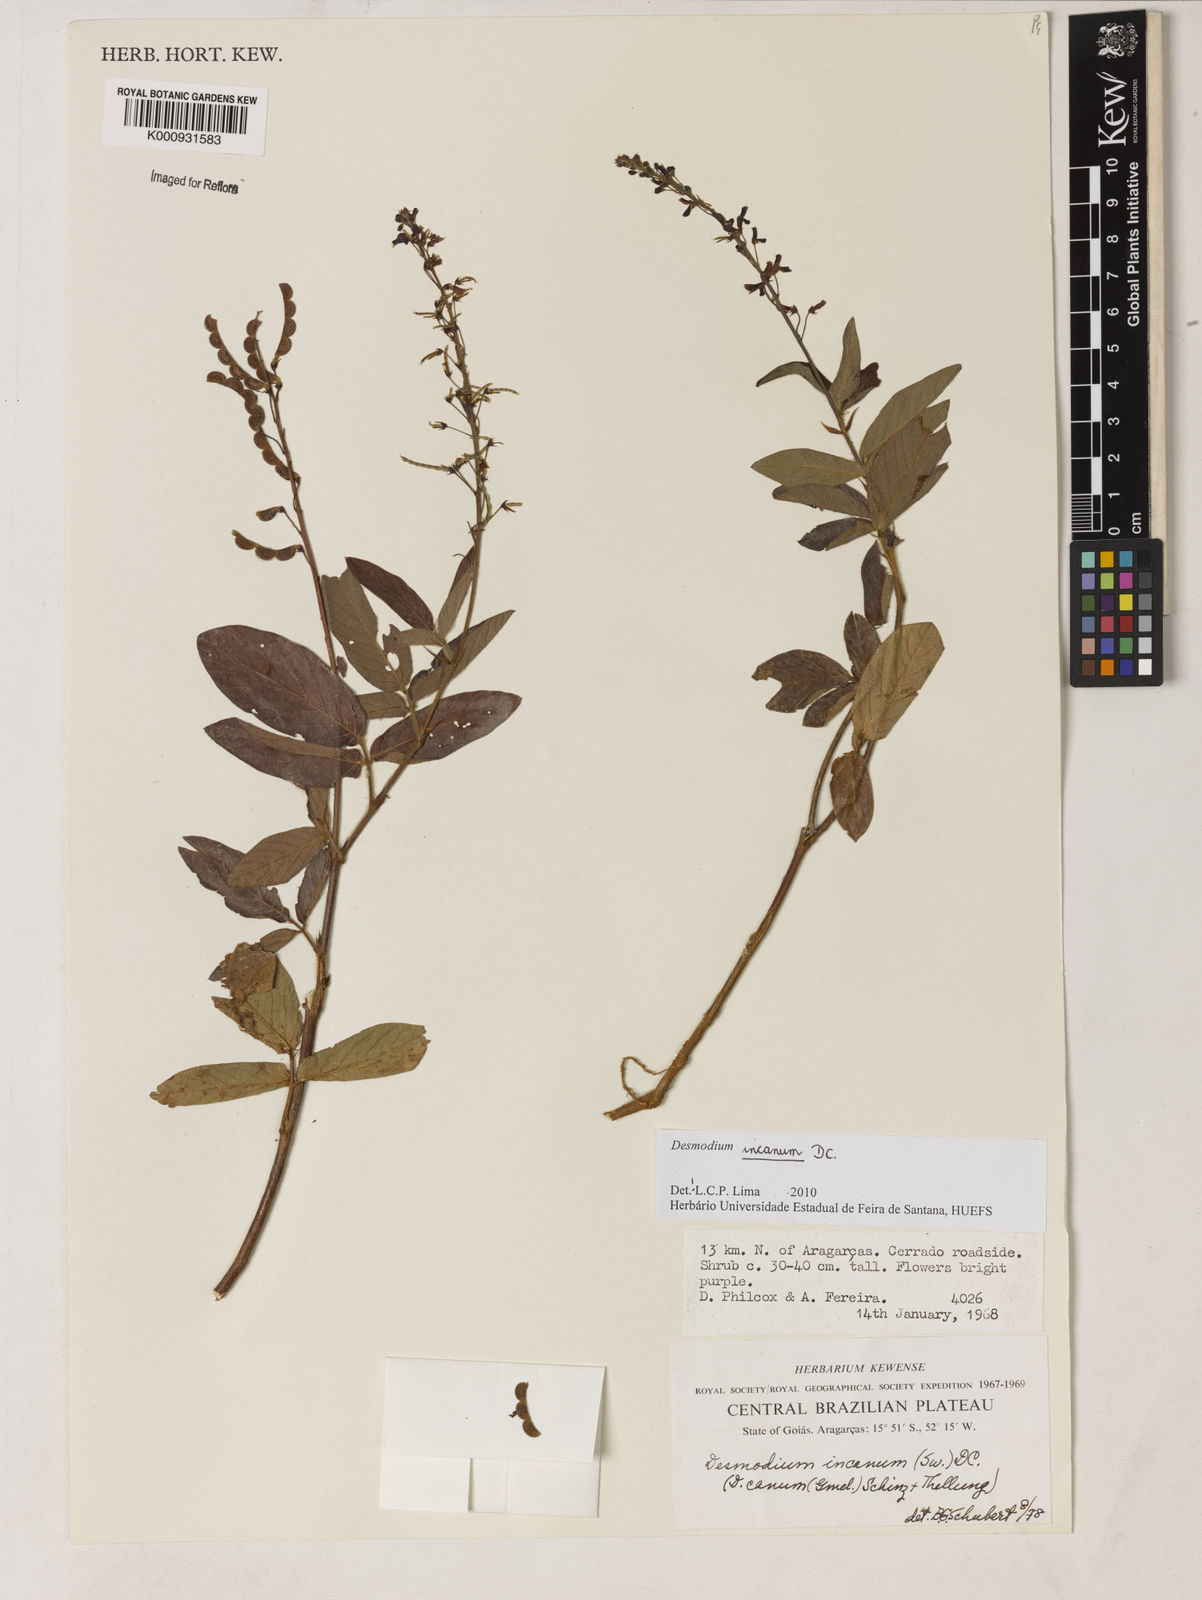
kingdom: Plantae
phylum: Tracheophyta
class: Magnoliopsida
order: Fabales
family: Fabaceae
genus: Desmodium
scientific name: Desmodium incanum
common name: Tickclover
